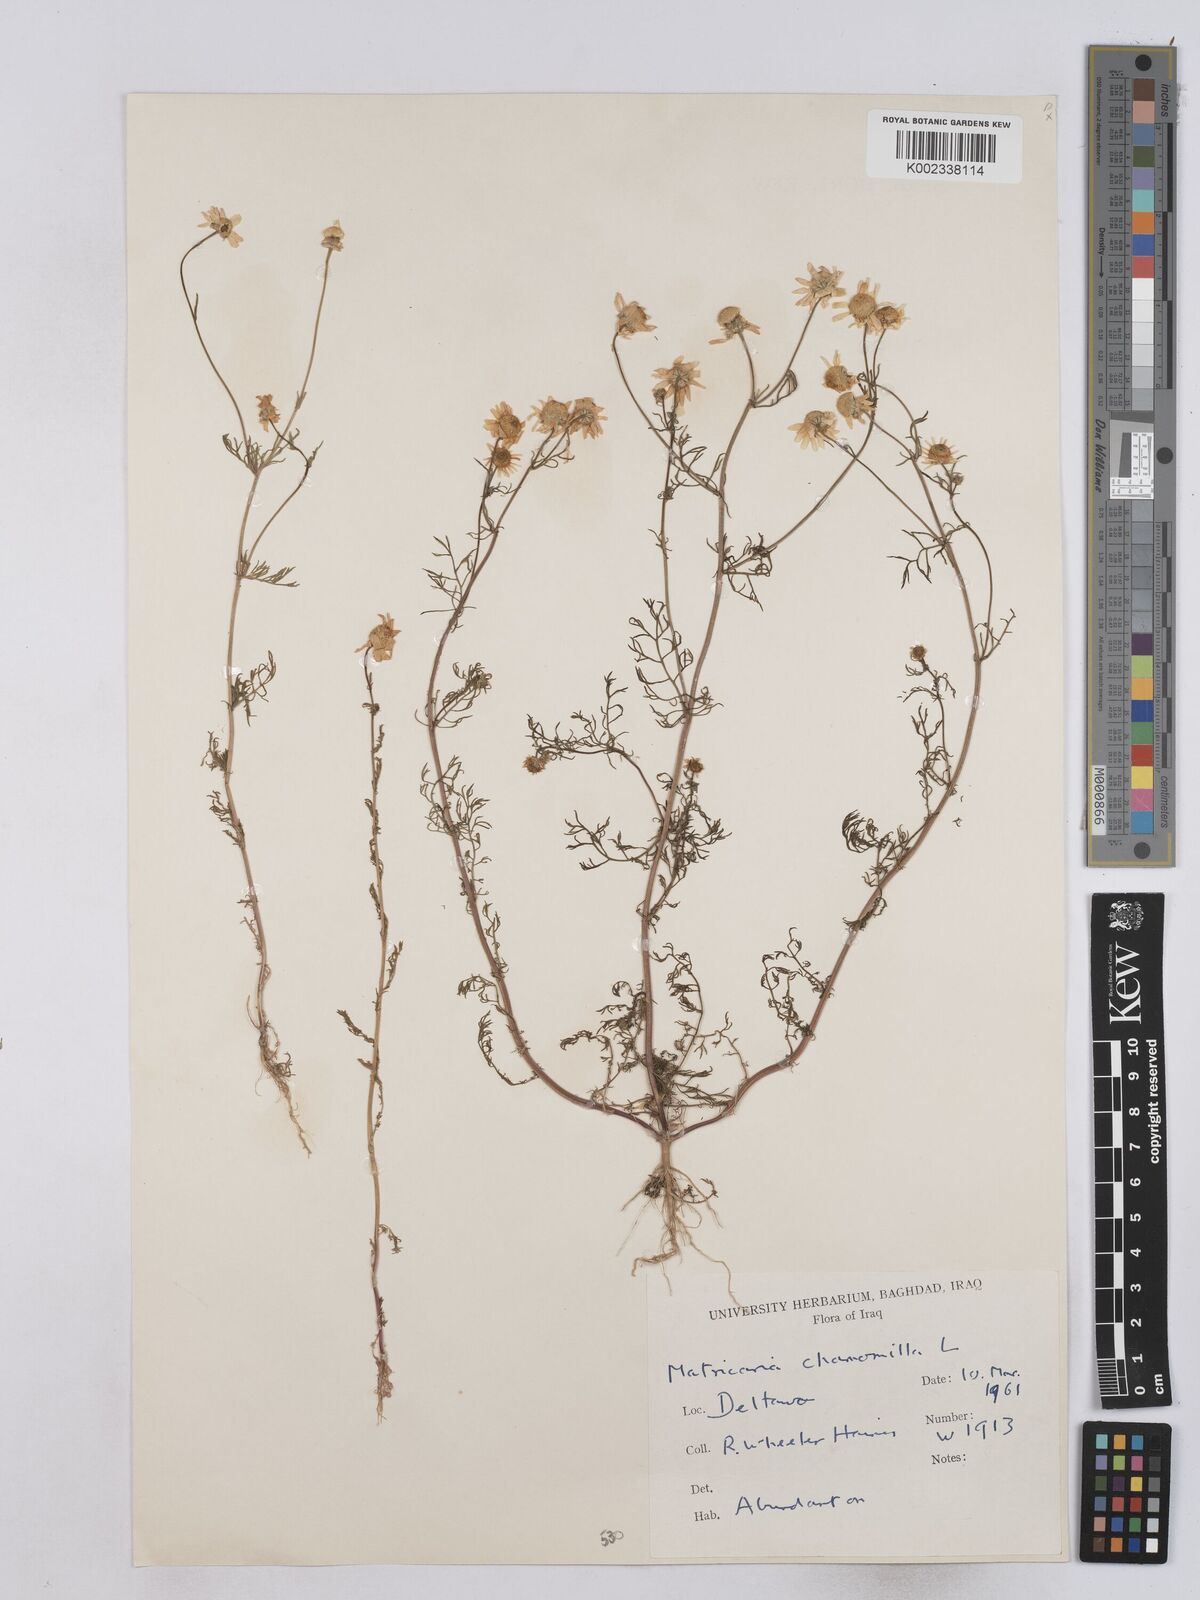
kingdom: Plantae
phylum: Tracheophyta
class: Magnoliopsida
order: Asterales
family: Asteraceae
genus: Matricaria
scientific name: Matricaria chamomilla
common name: Scented mayweed
